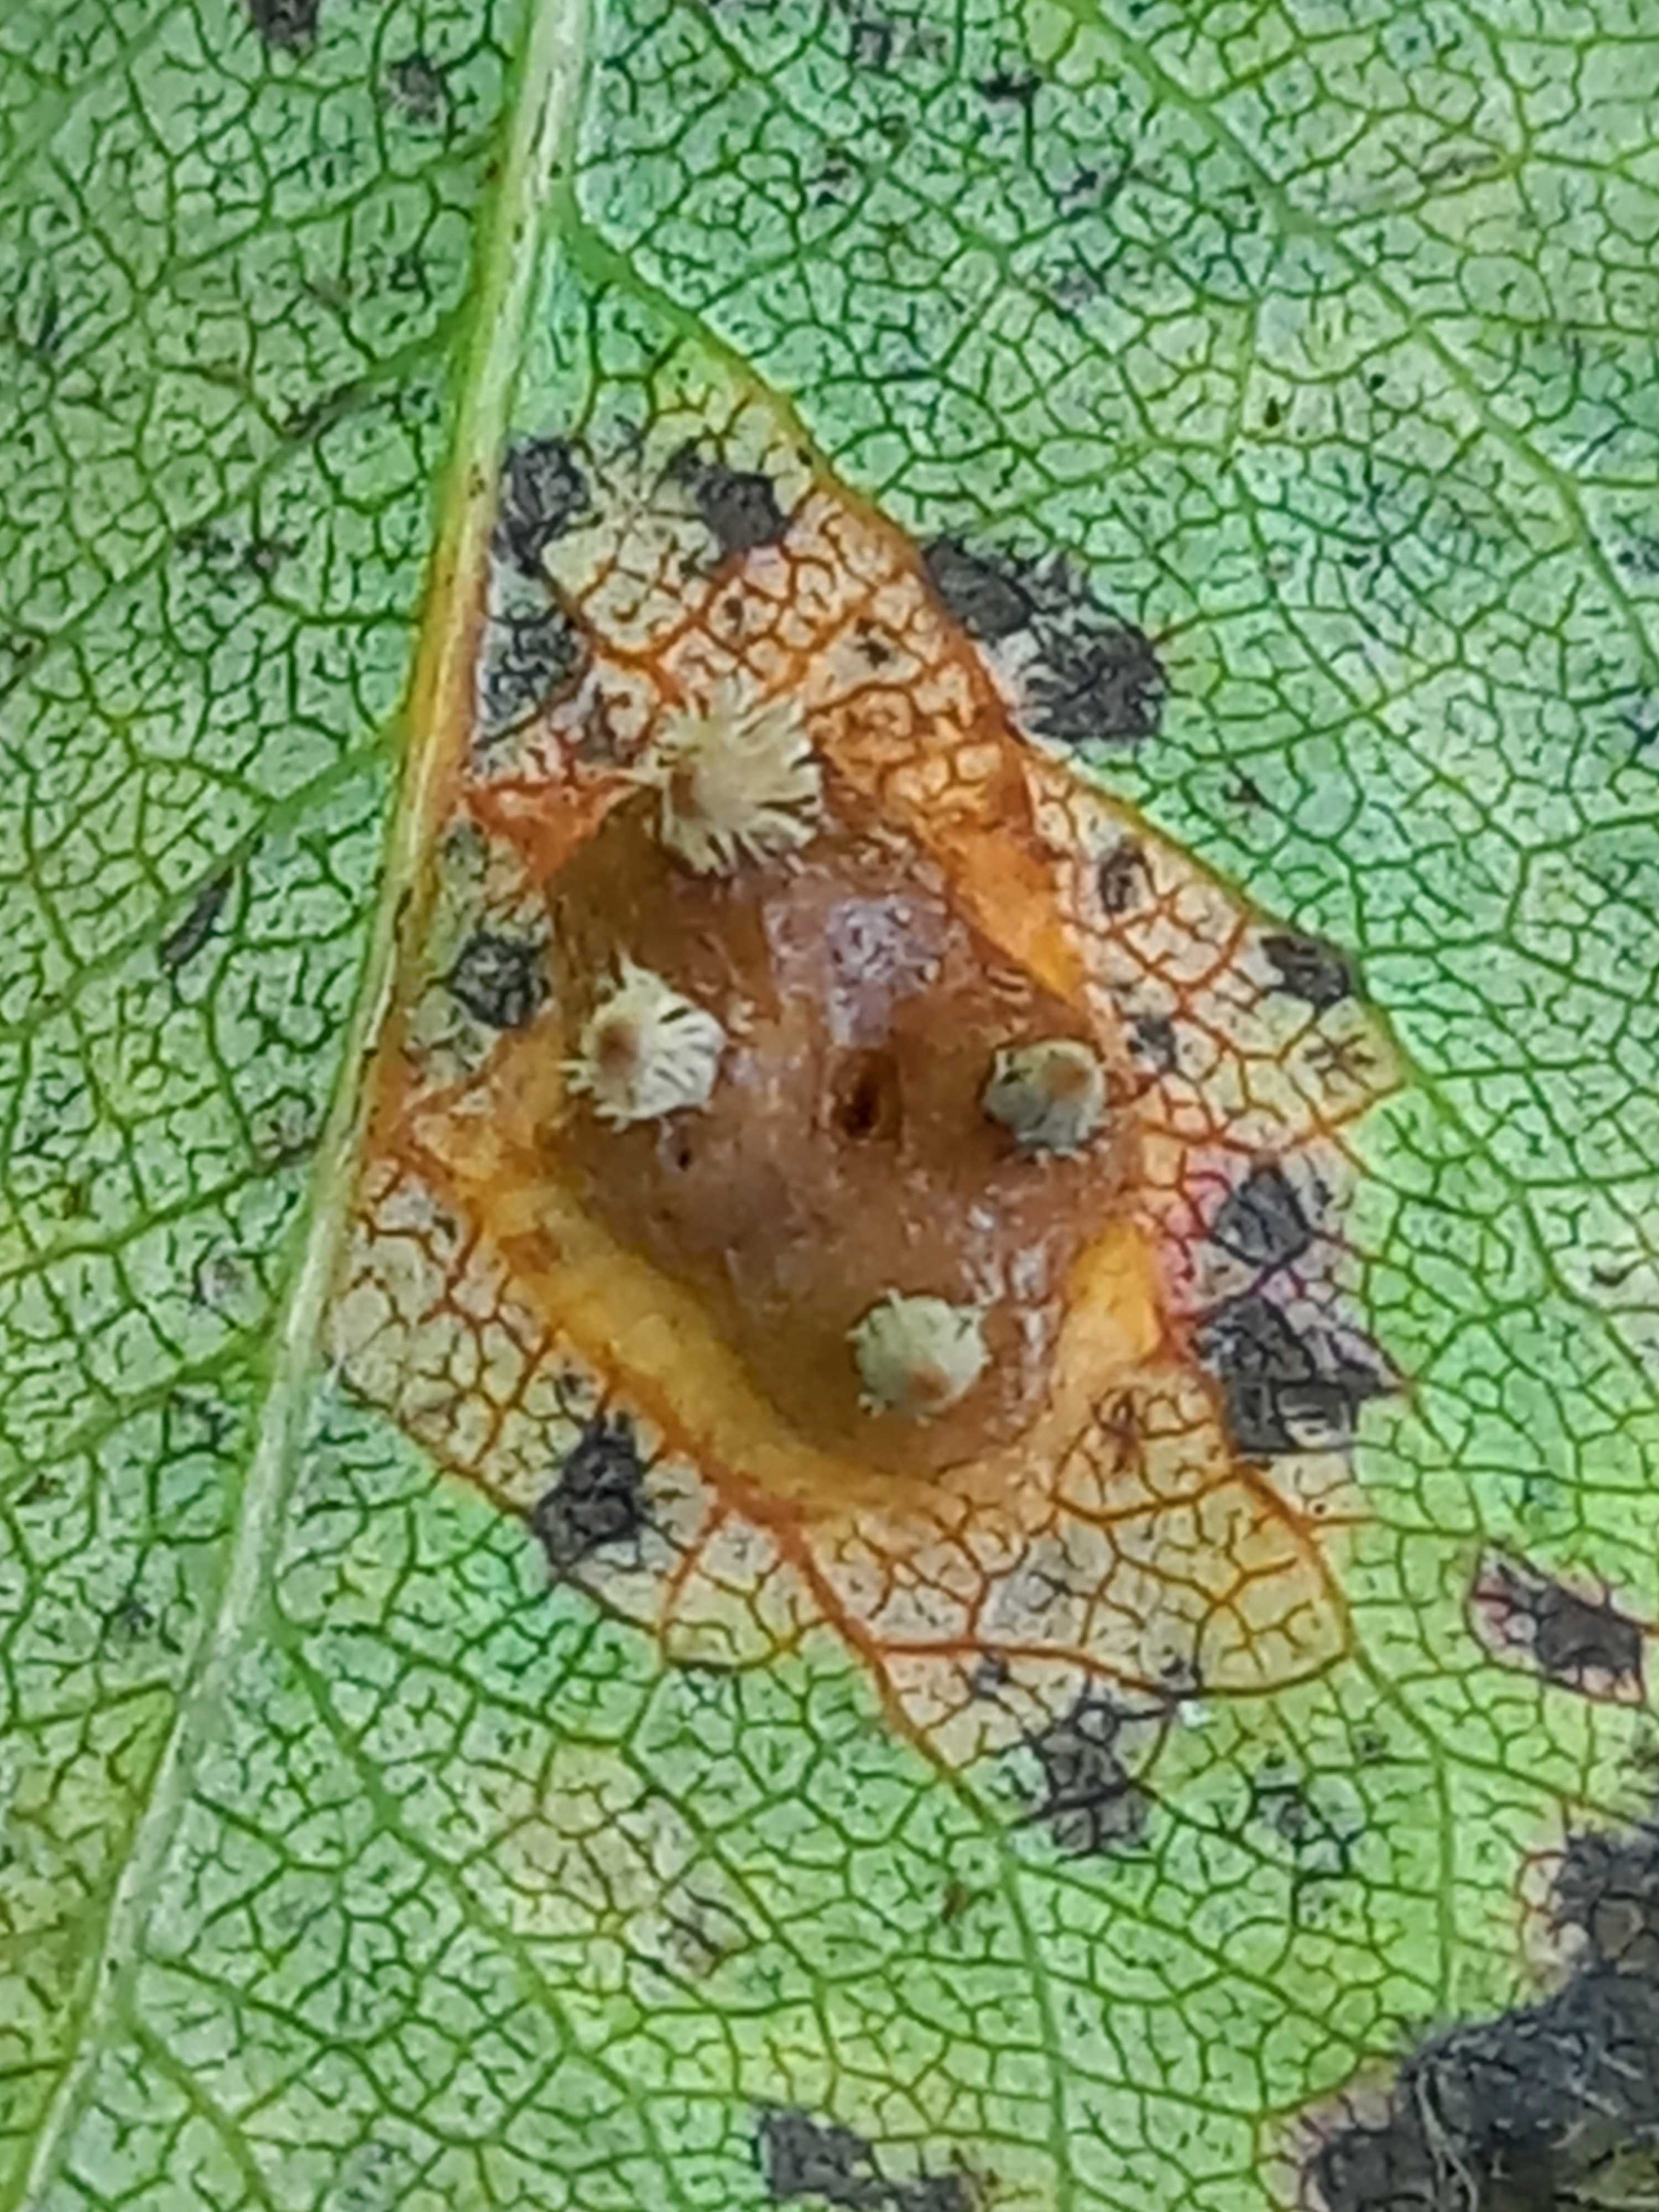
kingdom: Fungi
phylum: Basidiomycota
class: Pucciniomycetes
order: Pucciniales
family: Gymnosporangiaceae
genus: Gymnosporangium
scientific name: Gymnosporangium sabinae
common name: pæregitter-bævrerust
